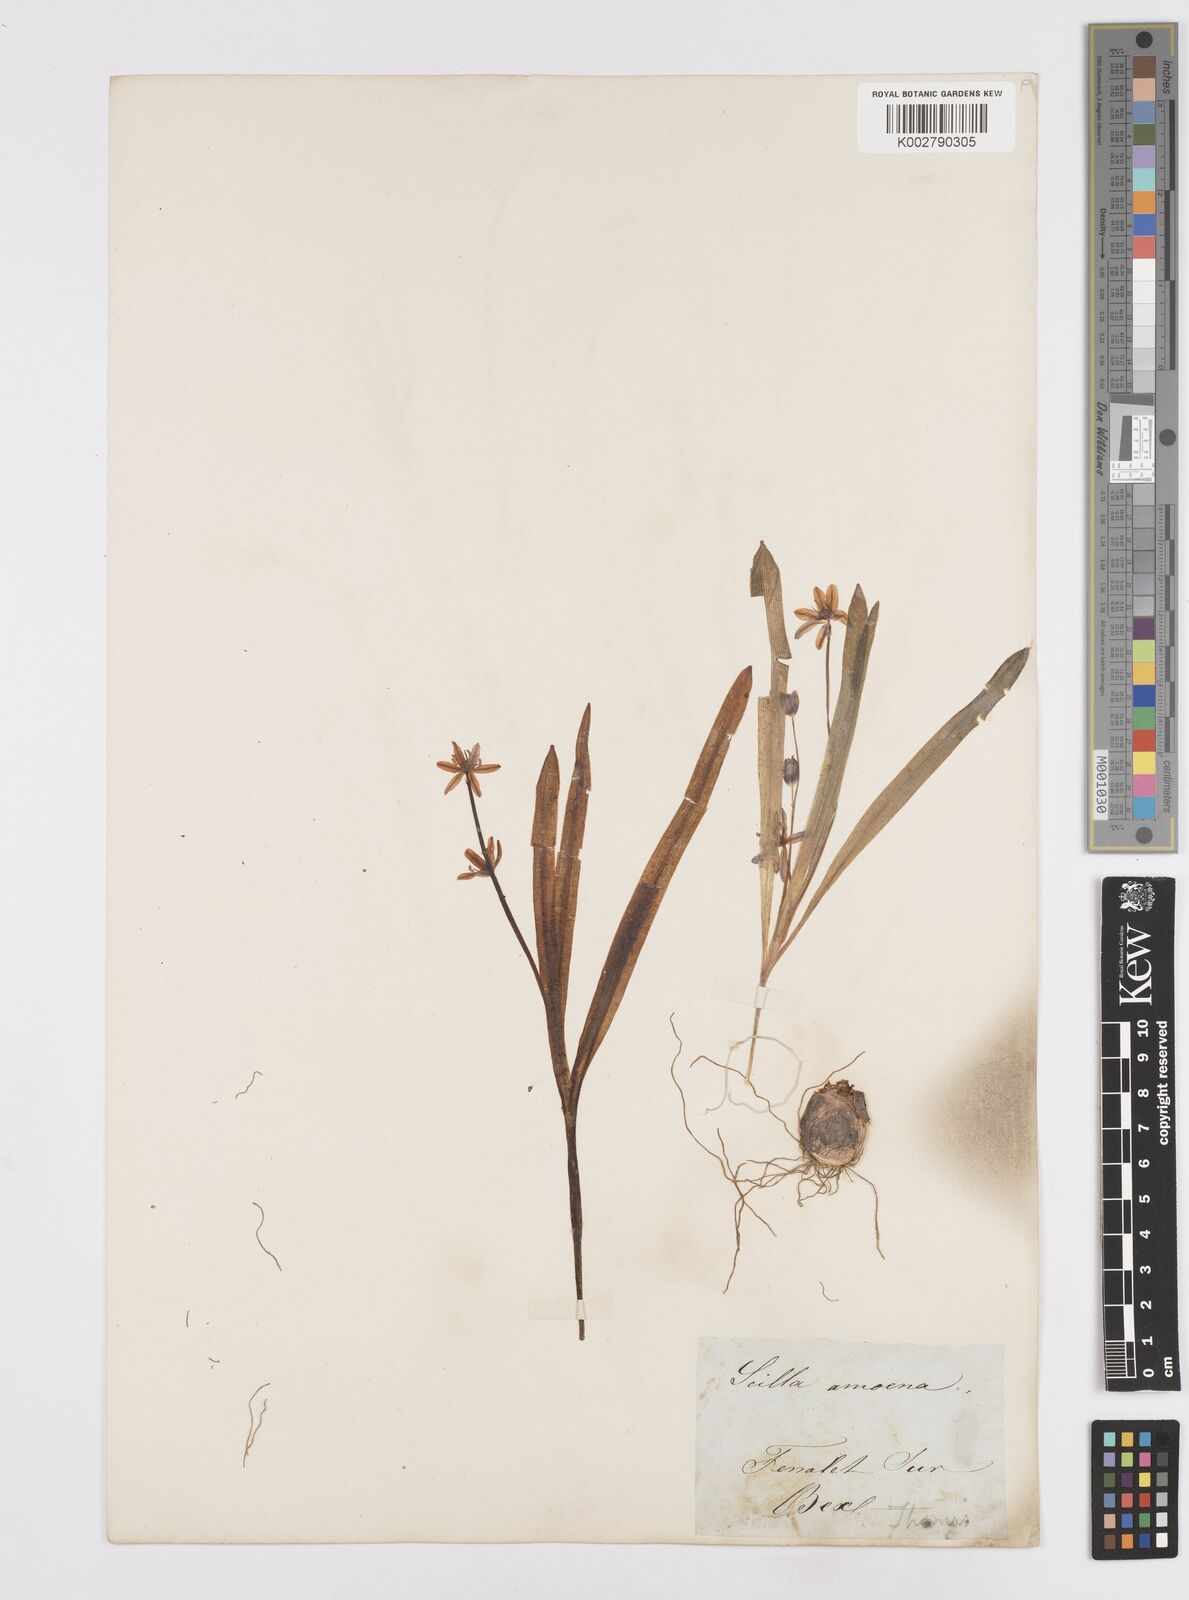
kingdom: Plantae
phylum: Tracheophyta
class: Liliopsida
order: Asparagales
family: Asparagaceae
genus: Scilla
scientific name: Scilla amoena
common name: Star-hyacinth
